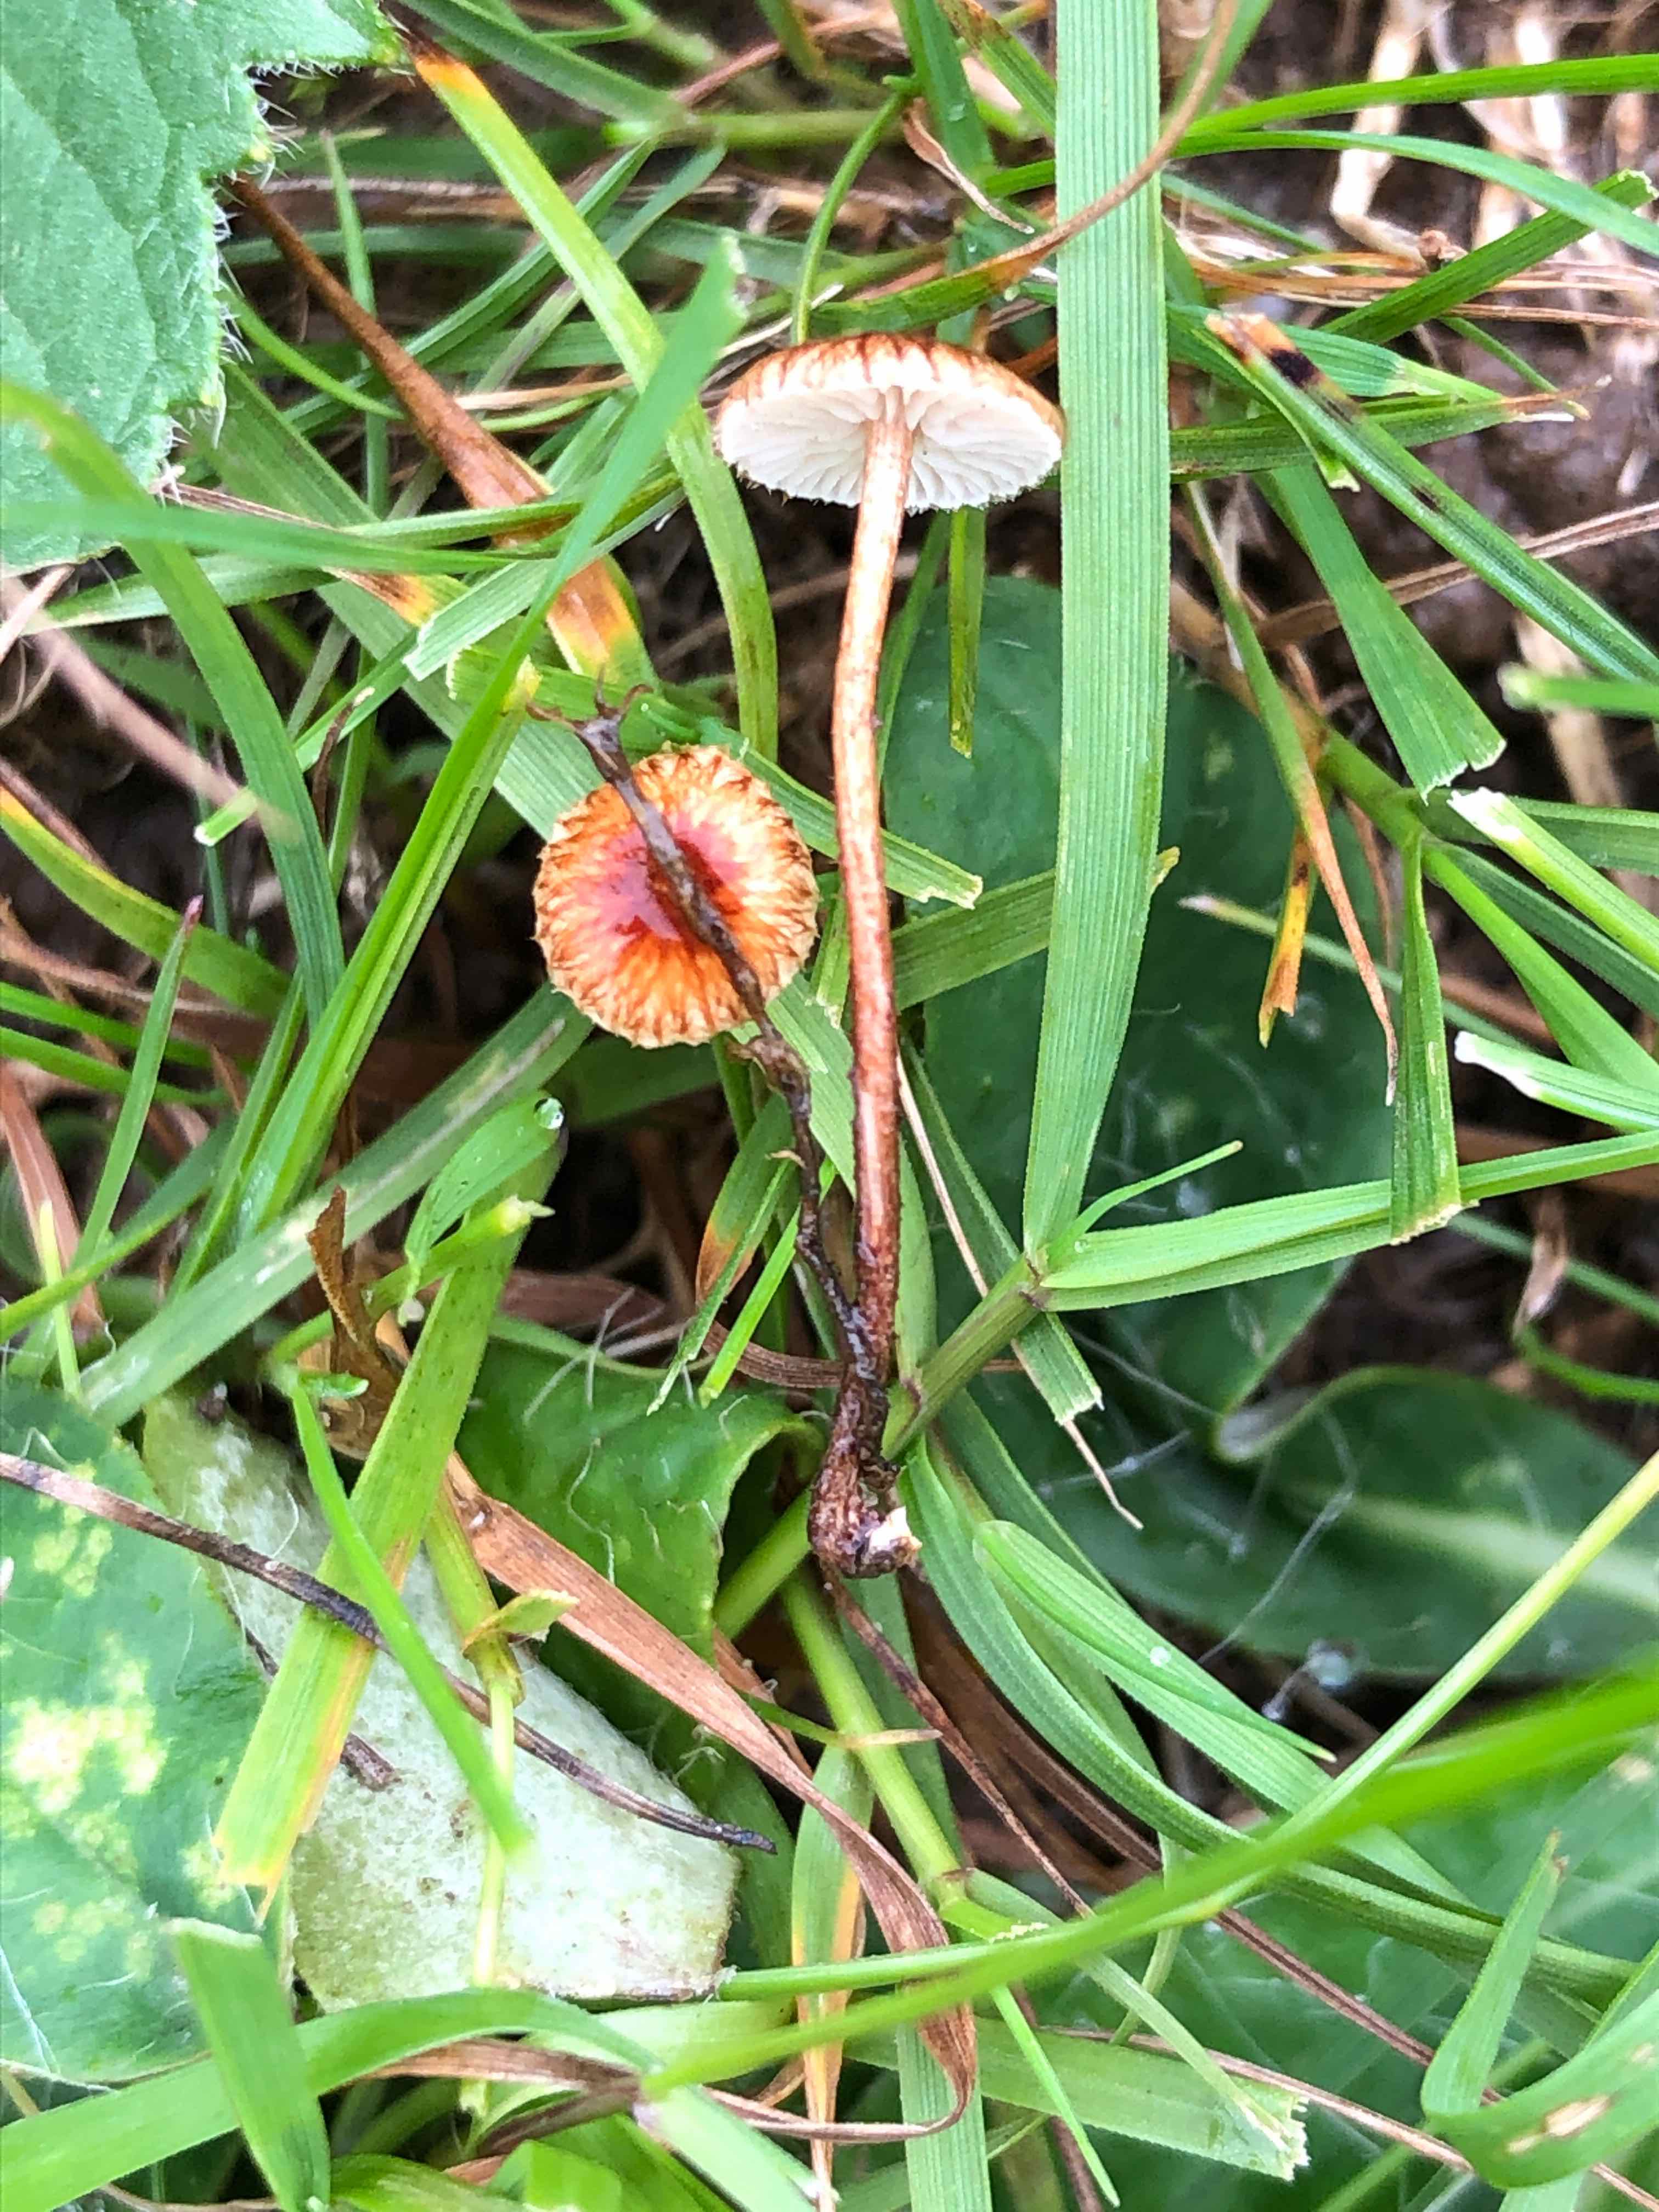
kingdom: Fungi
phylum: Basidiomycota
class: Agaricomycetes
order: Agaricales
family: Marasmiaceae
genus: Crinipellis
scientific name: Crinipellis scabella
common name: børstefod
